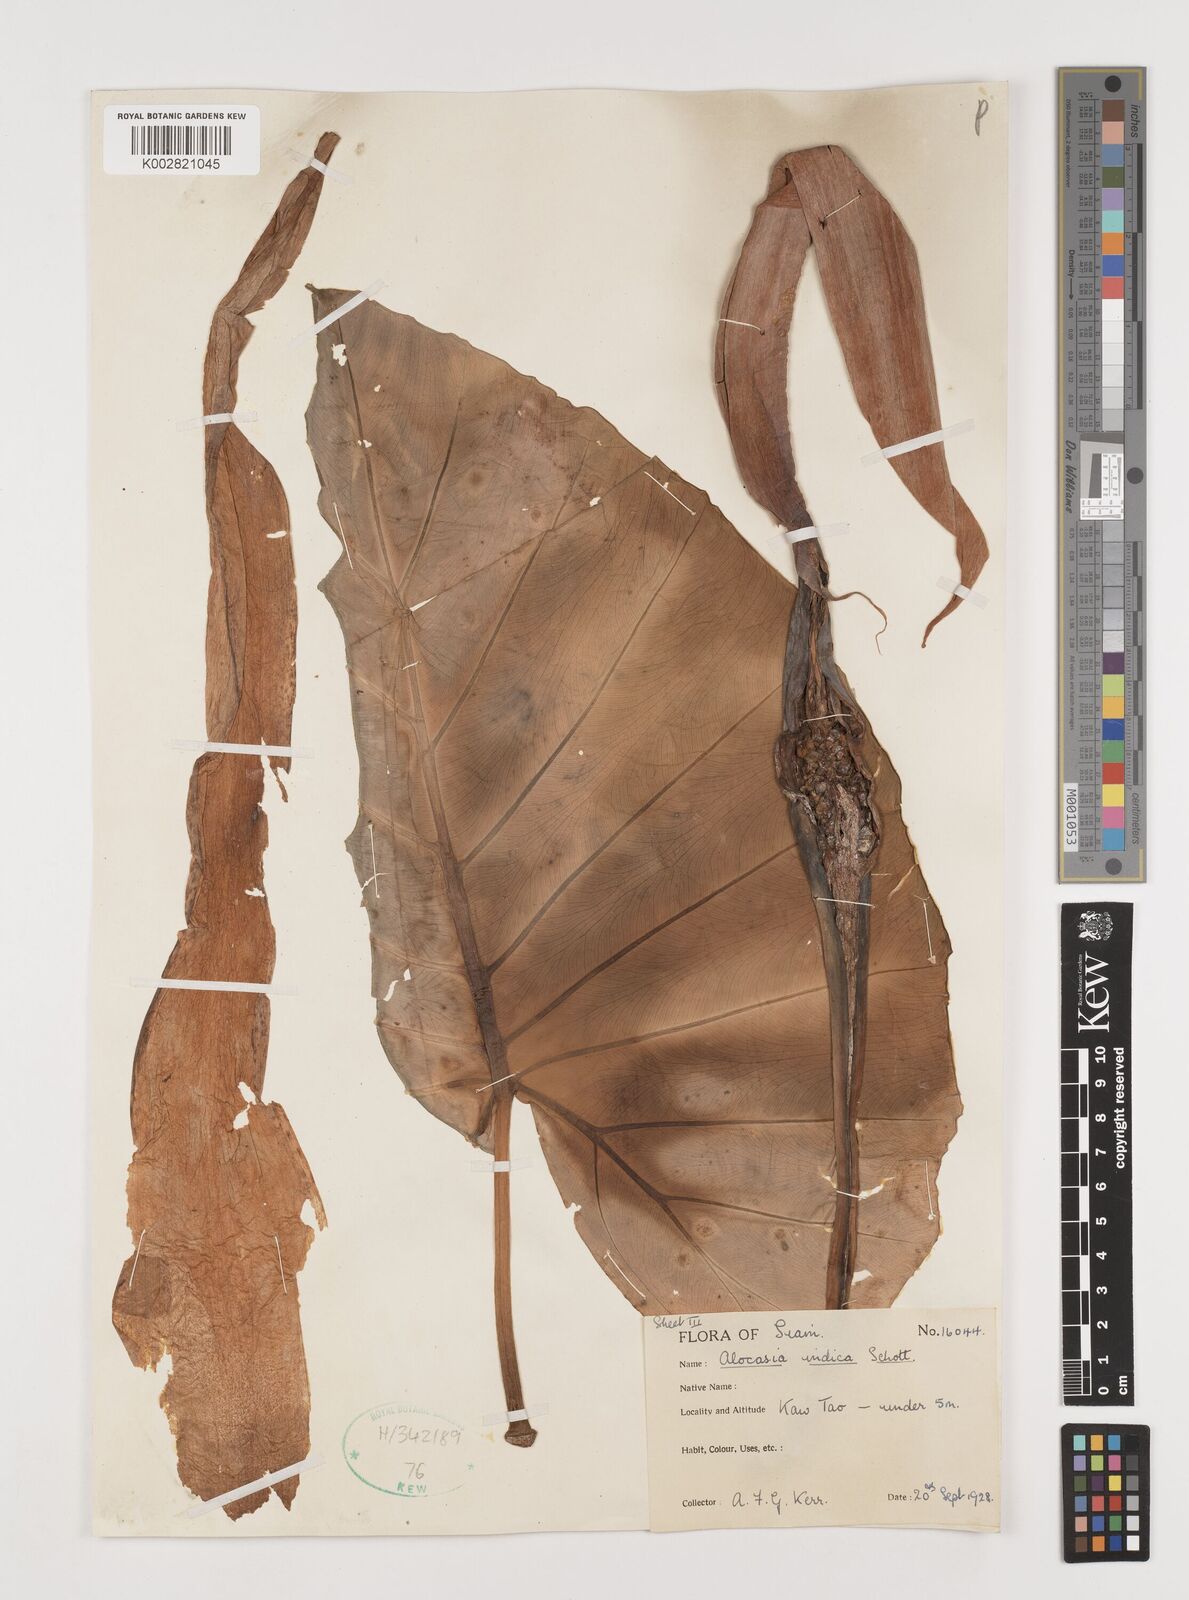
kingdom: Plantae
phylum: Tracheophyta
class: Liliopsida
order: Alismatales
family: Araceae
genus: Alocasia
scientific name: Alocasia macrorrhizos
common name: Giant taro
